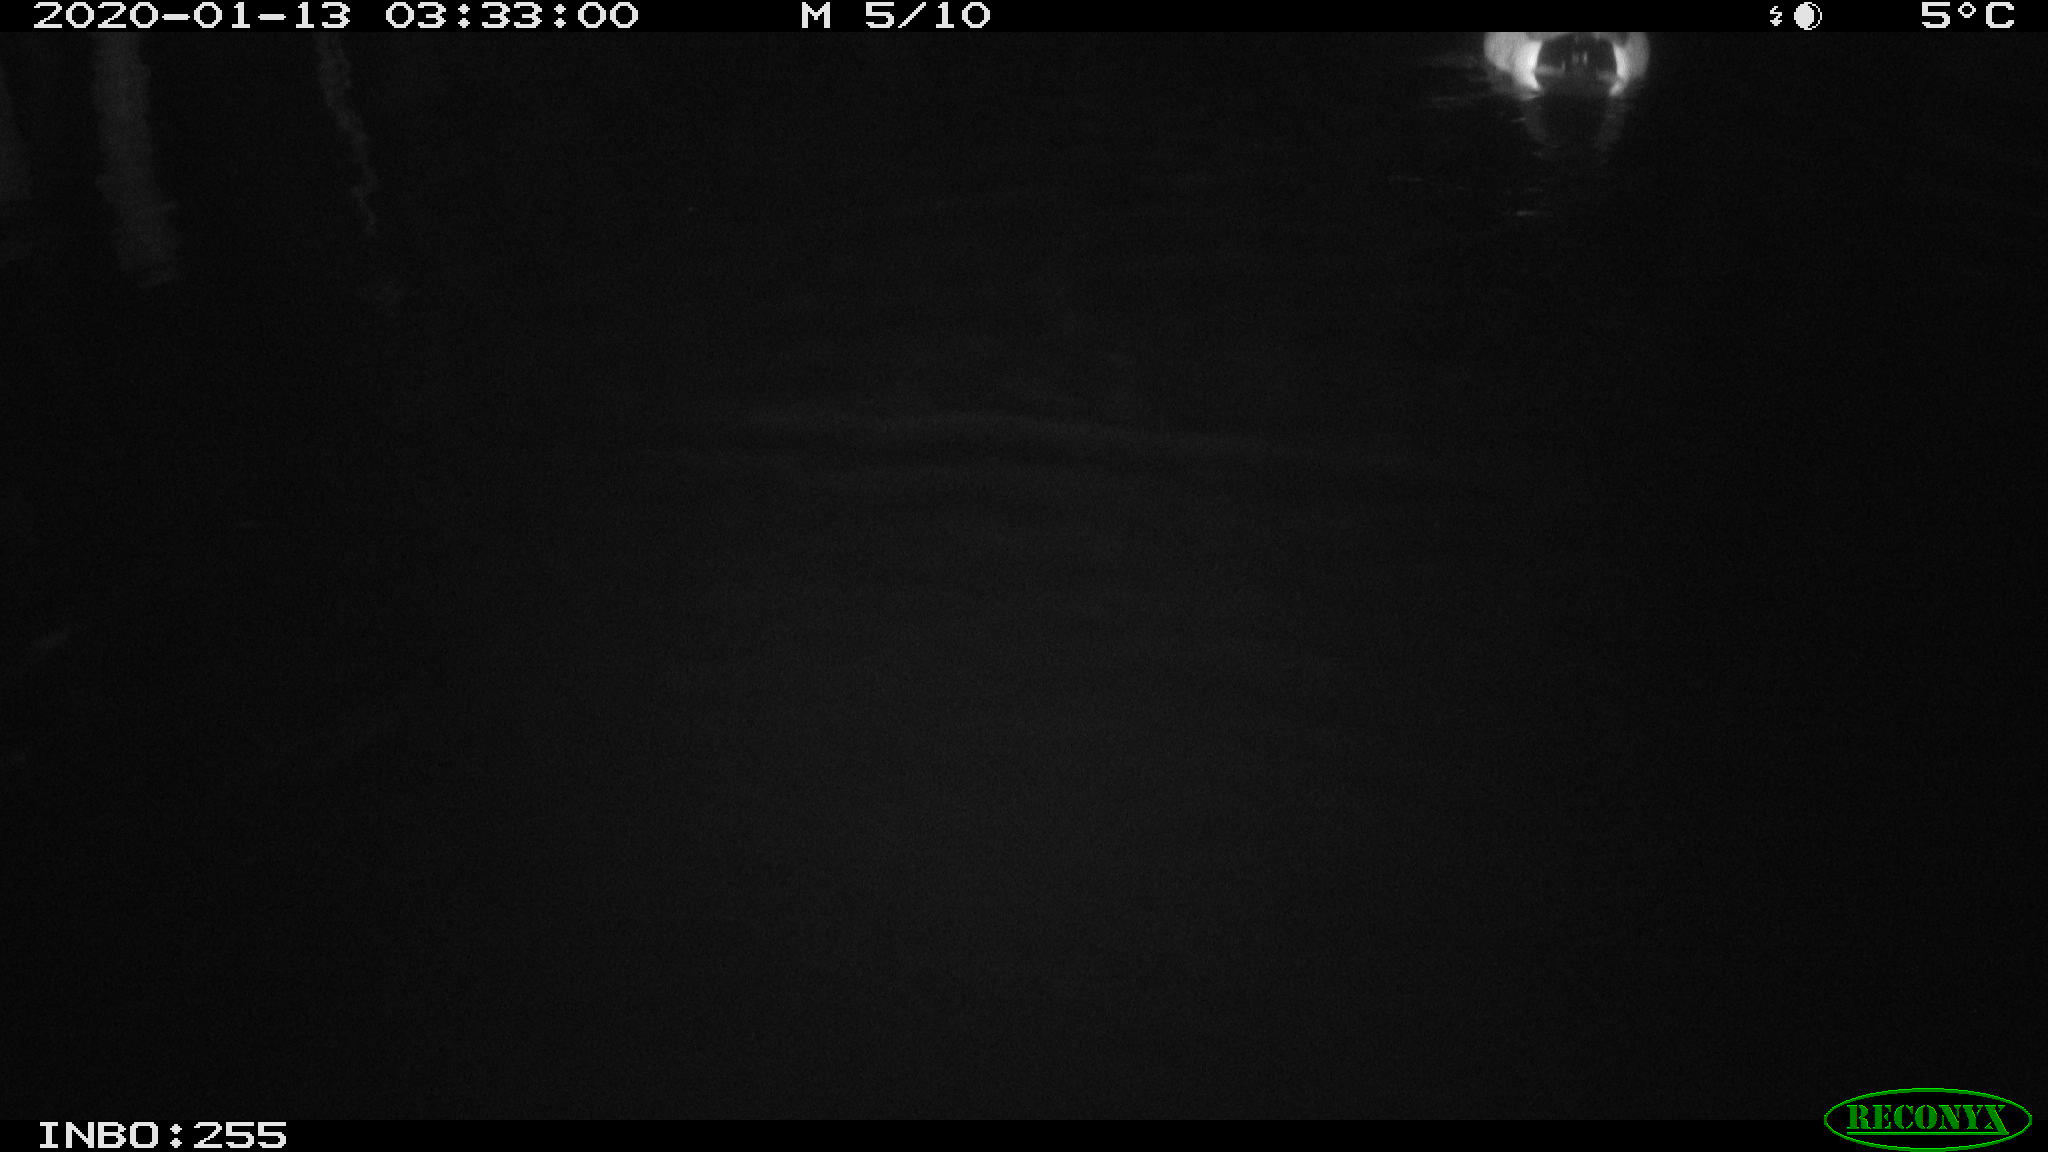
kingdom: Animalia
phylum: Chordata
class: Aves
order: Anseriformes
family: Anatidae
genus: Anas
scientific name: Anas platyrhynchos
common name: Mallard
